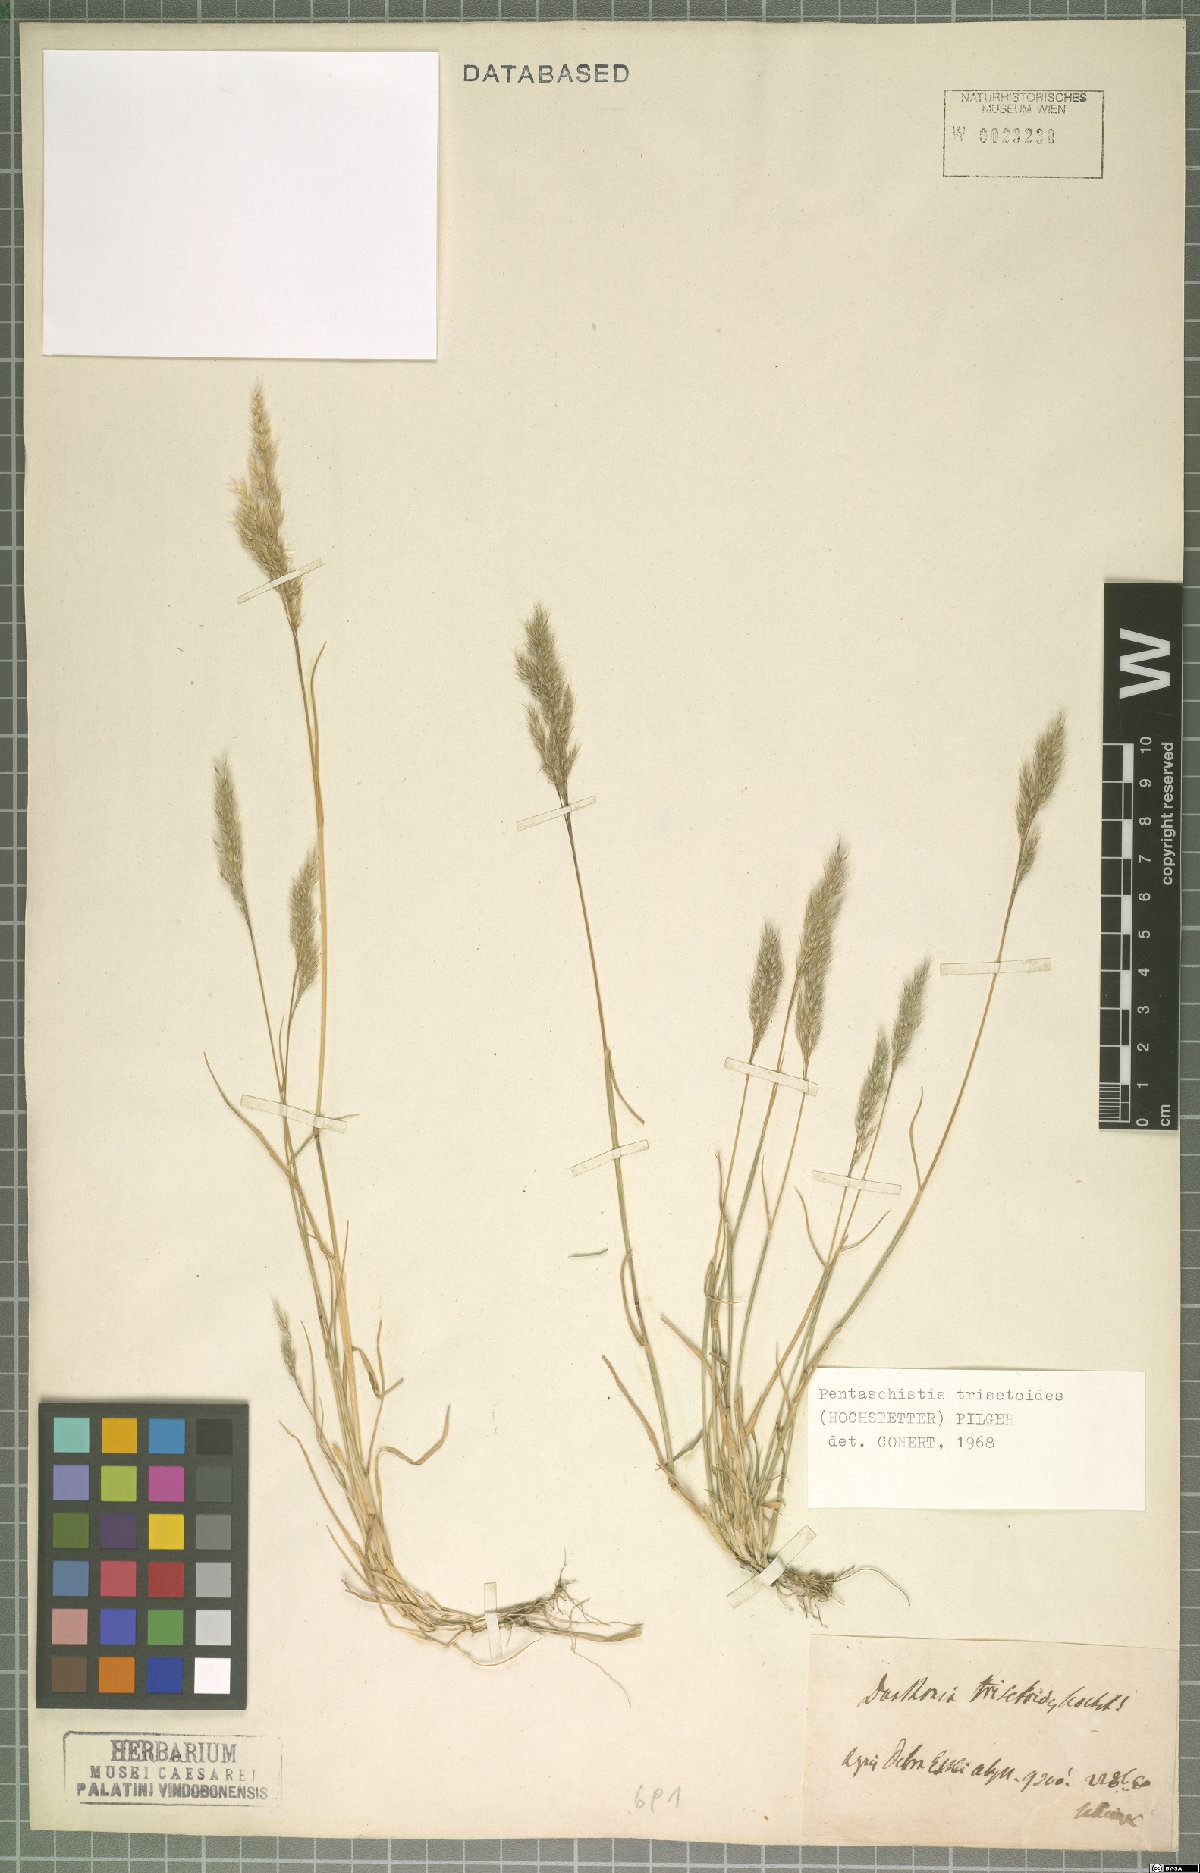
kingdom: Plantae
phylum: Tracheophyta
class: Liliopsida
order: Poales
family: Poaceae
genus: Pentameris
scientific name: Pentameris trisetoides
